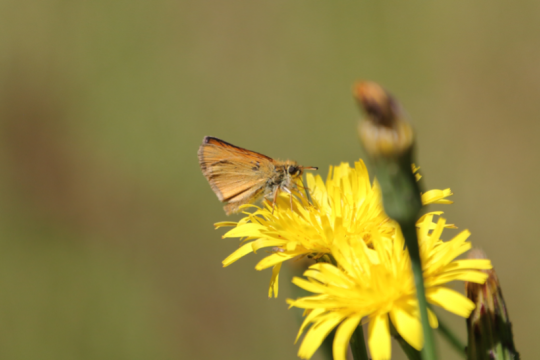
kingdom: Animalia
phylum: Arthropoda
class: Insecta
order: Lepidoptera
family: Hesperiidae
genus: Thymelicus
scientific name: Thymelicus lineola
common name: European Skipper
